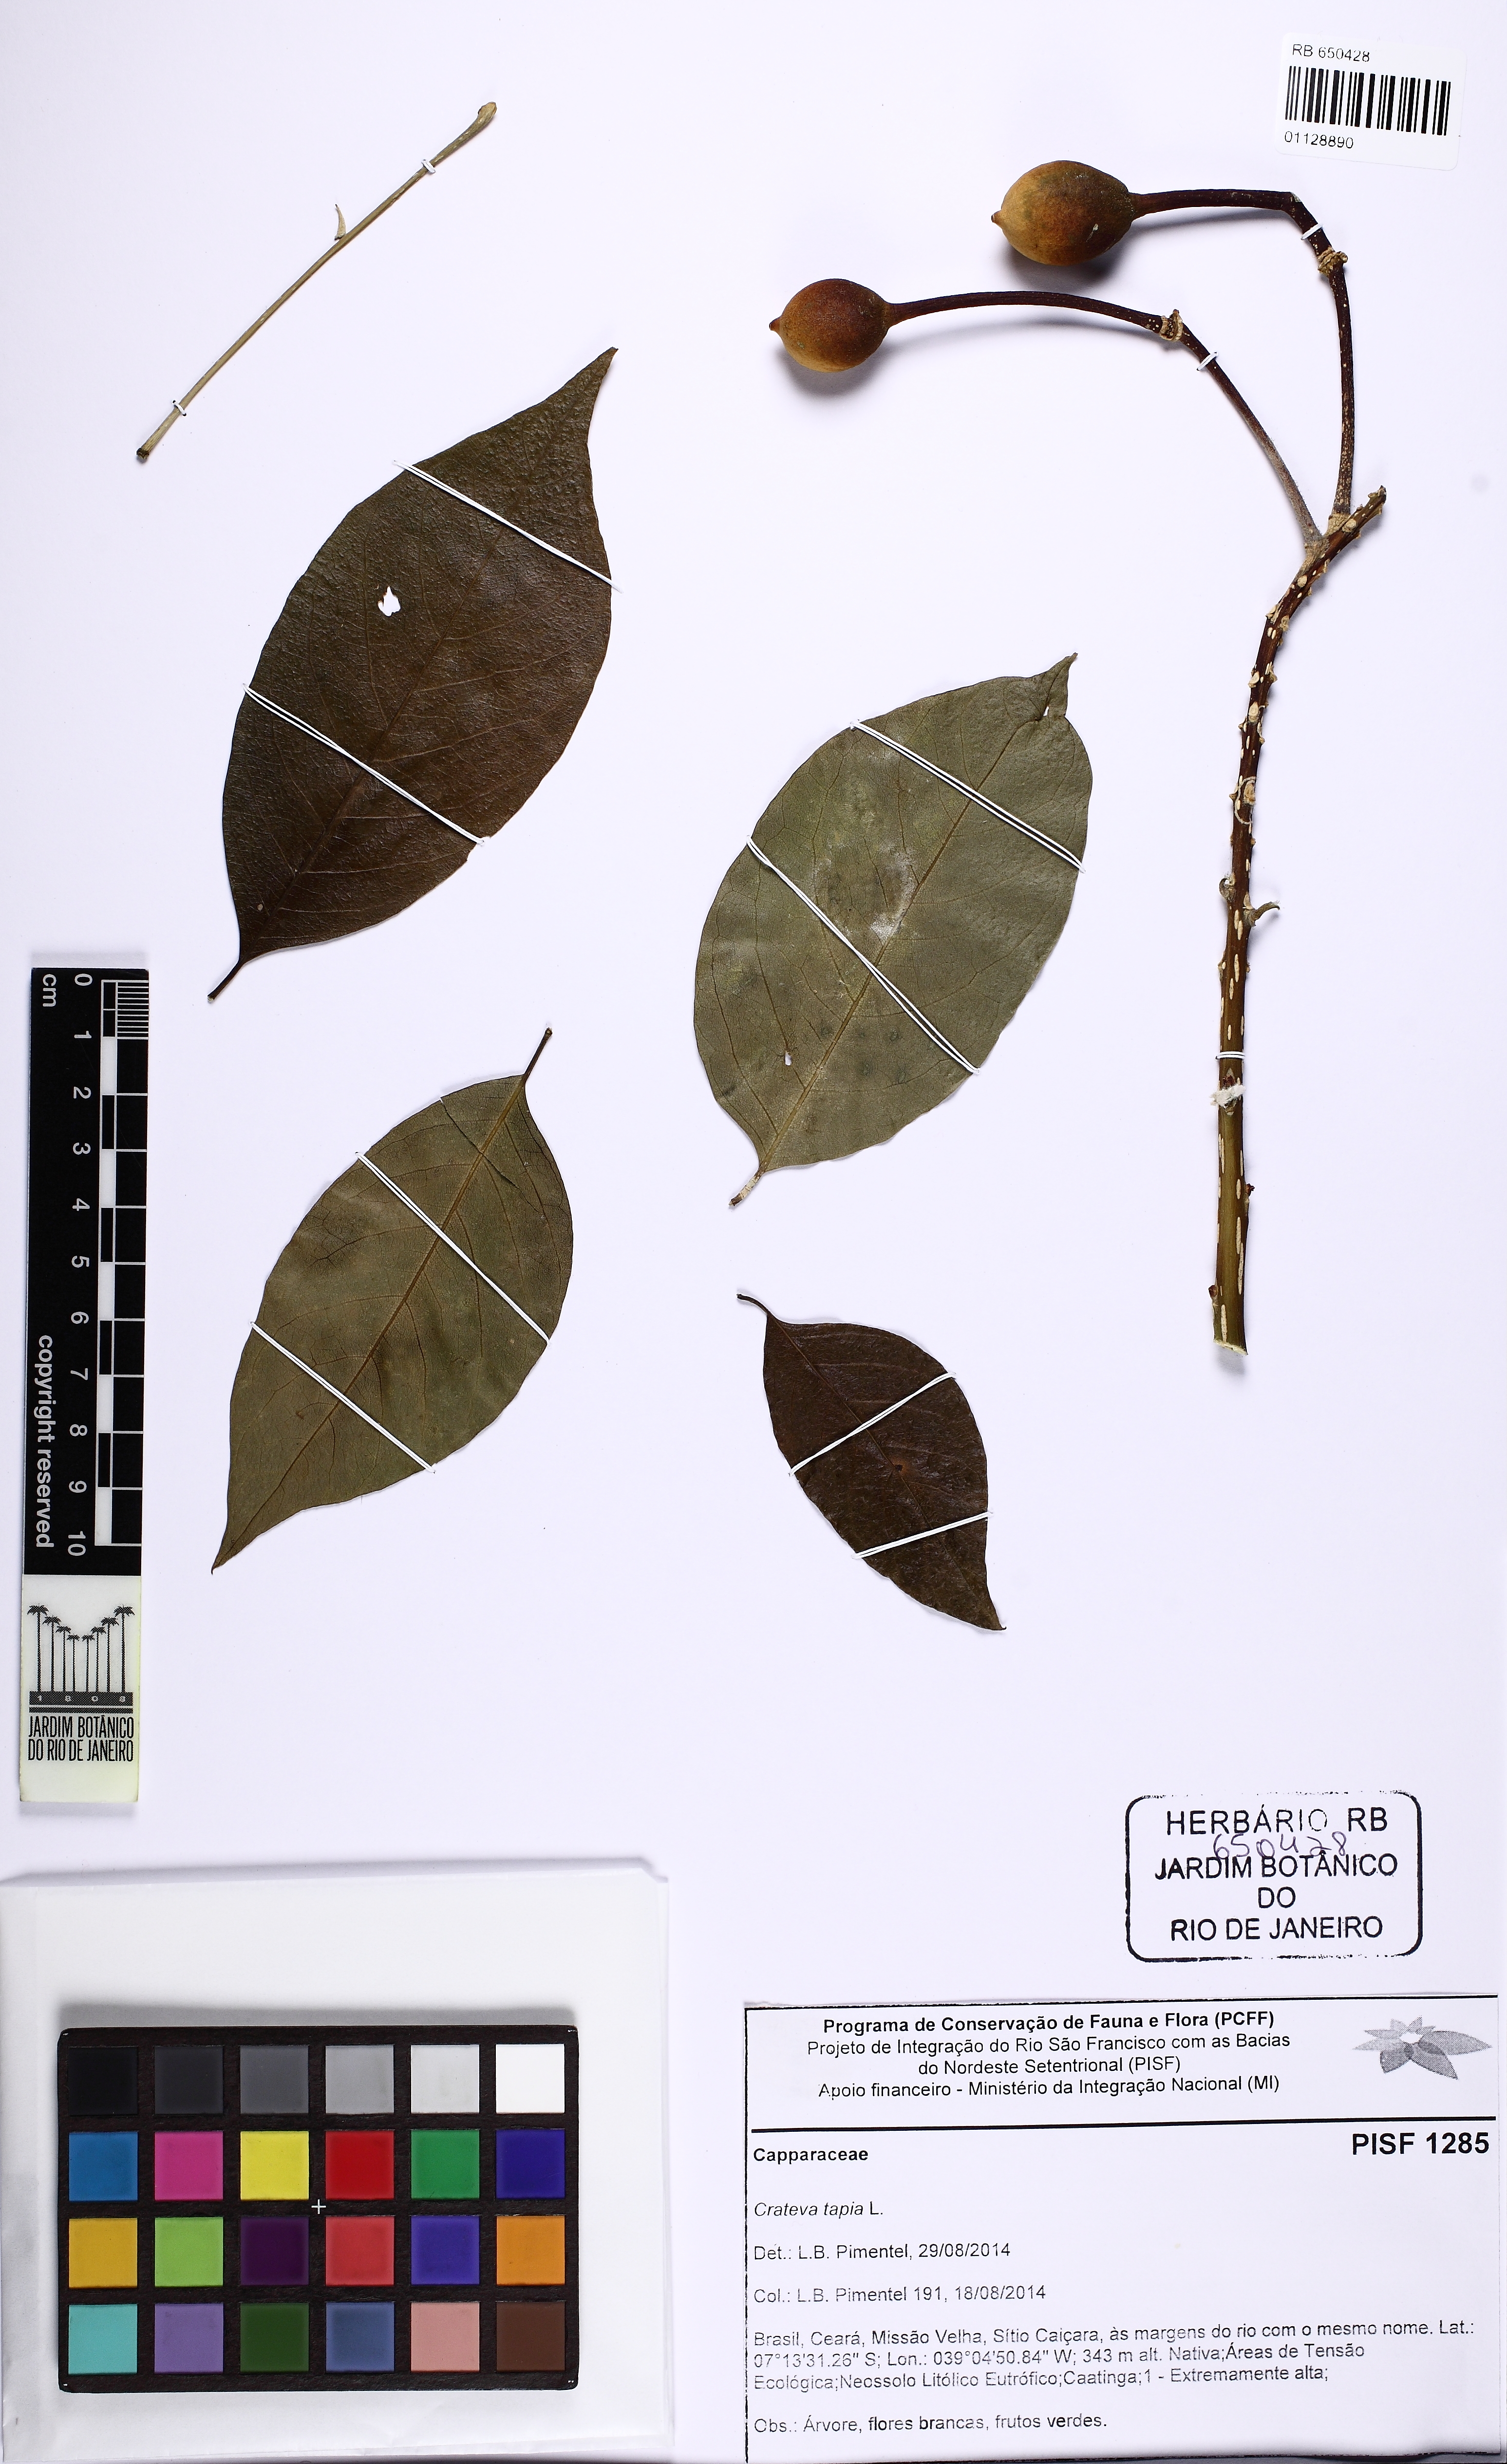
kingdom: Plantae
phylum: Tracheophyta
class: Magnoliopsida
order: Brassicales
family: Capparaceae
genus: Crateva
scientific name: Crateva tapia
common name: Garlic-pear
